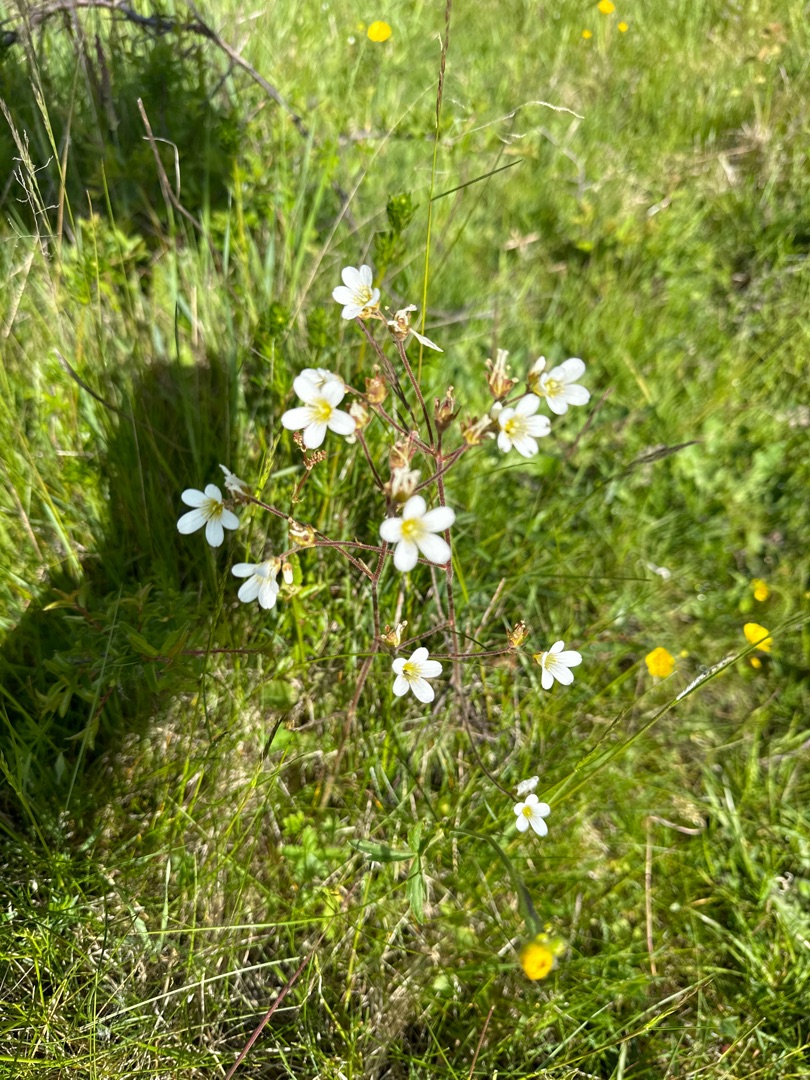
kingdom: Plantae
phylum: Tracheophyta
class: Magnoliopsida
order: Saxifragales
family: Saxifragaceae
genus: Saxifraga
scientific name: Saxifraga granulata
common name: Kornet stenbræk
